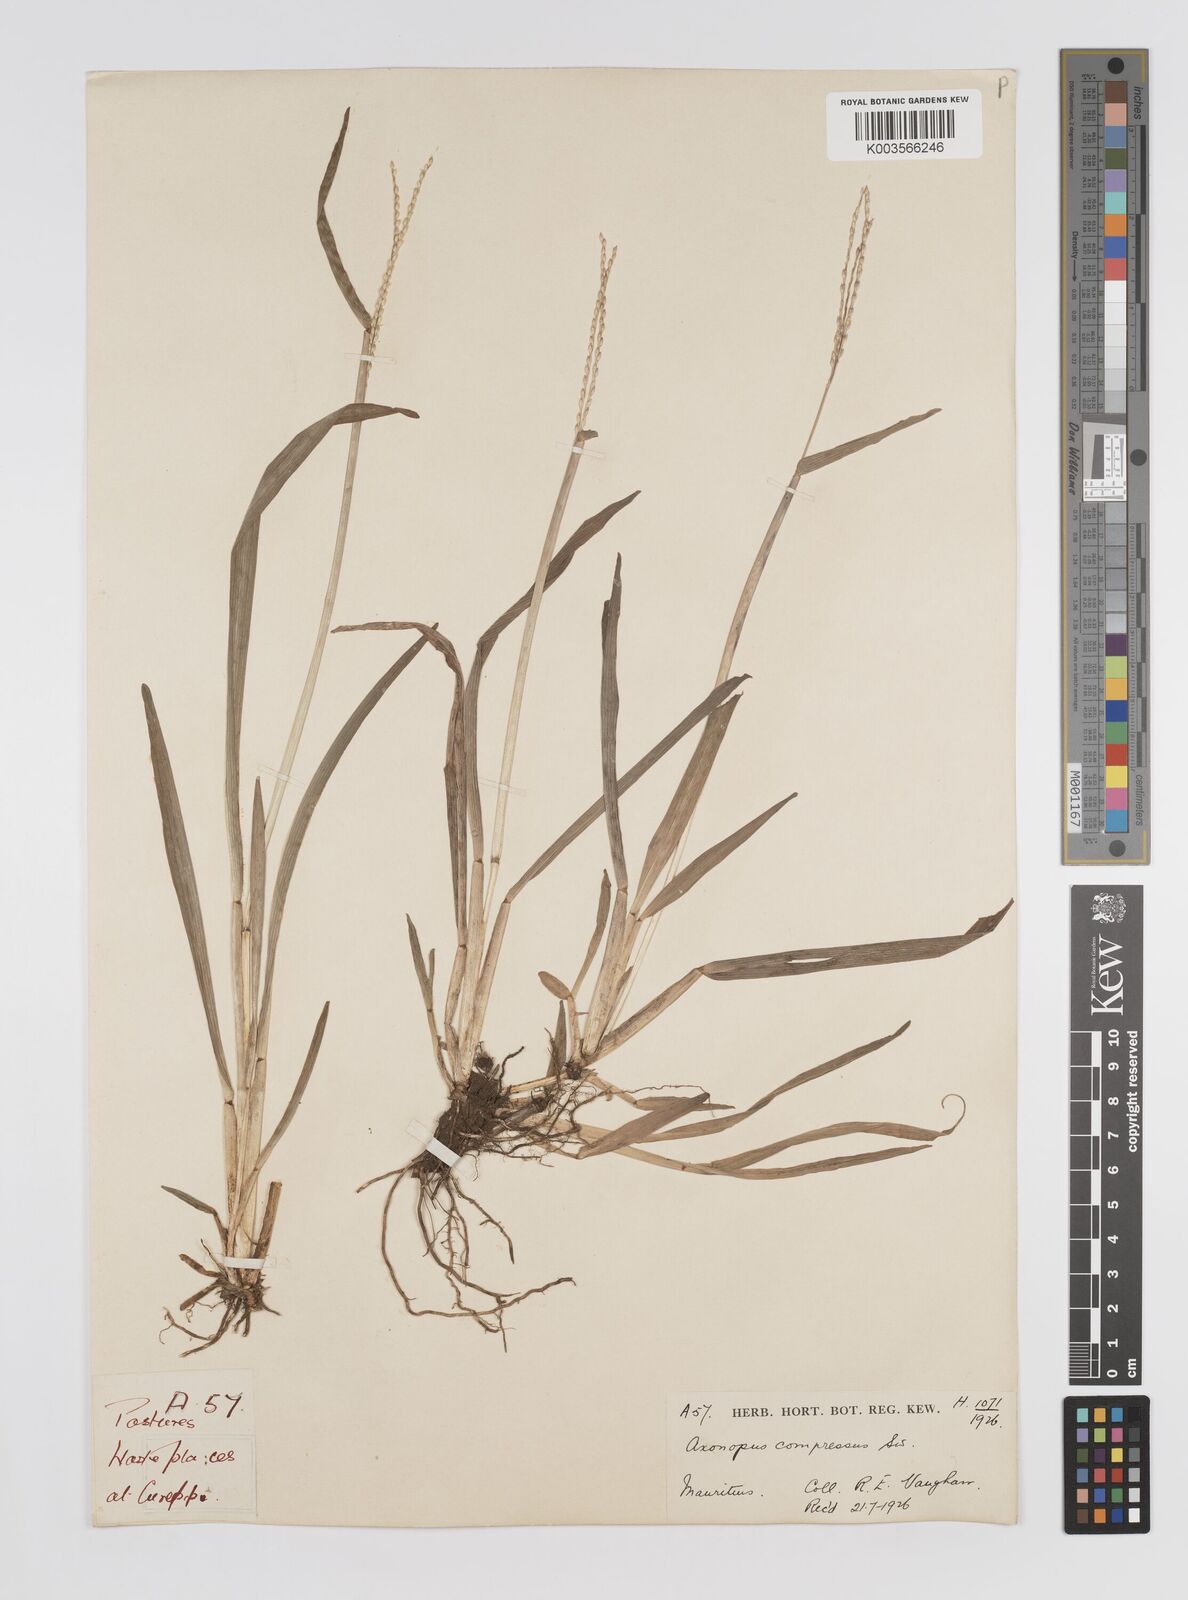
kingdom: Plantae
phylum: Tracheophyta
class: Liliopsida
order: Poales
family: Poaceae
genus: Axonopus
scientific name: Axonopus compressus
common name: American carpet grass
